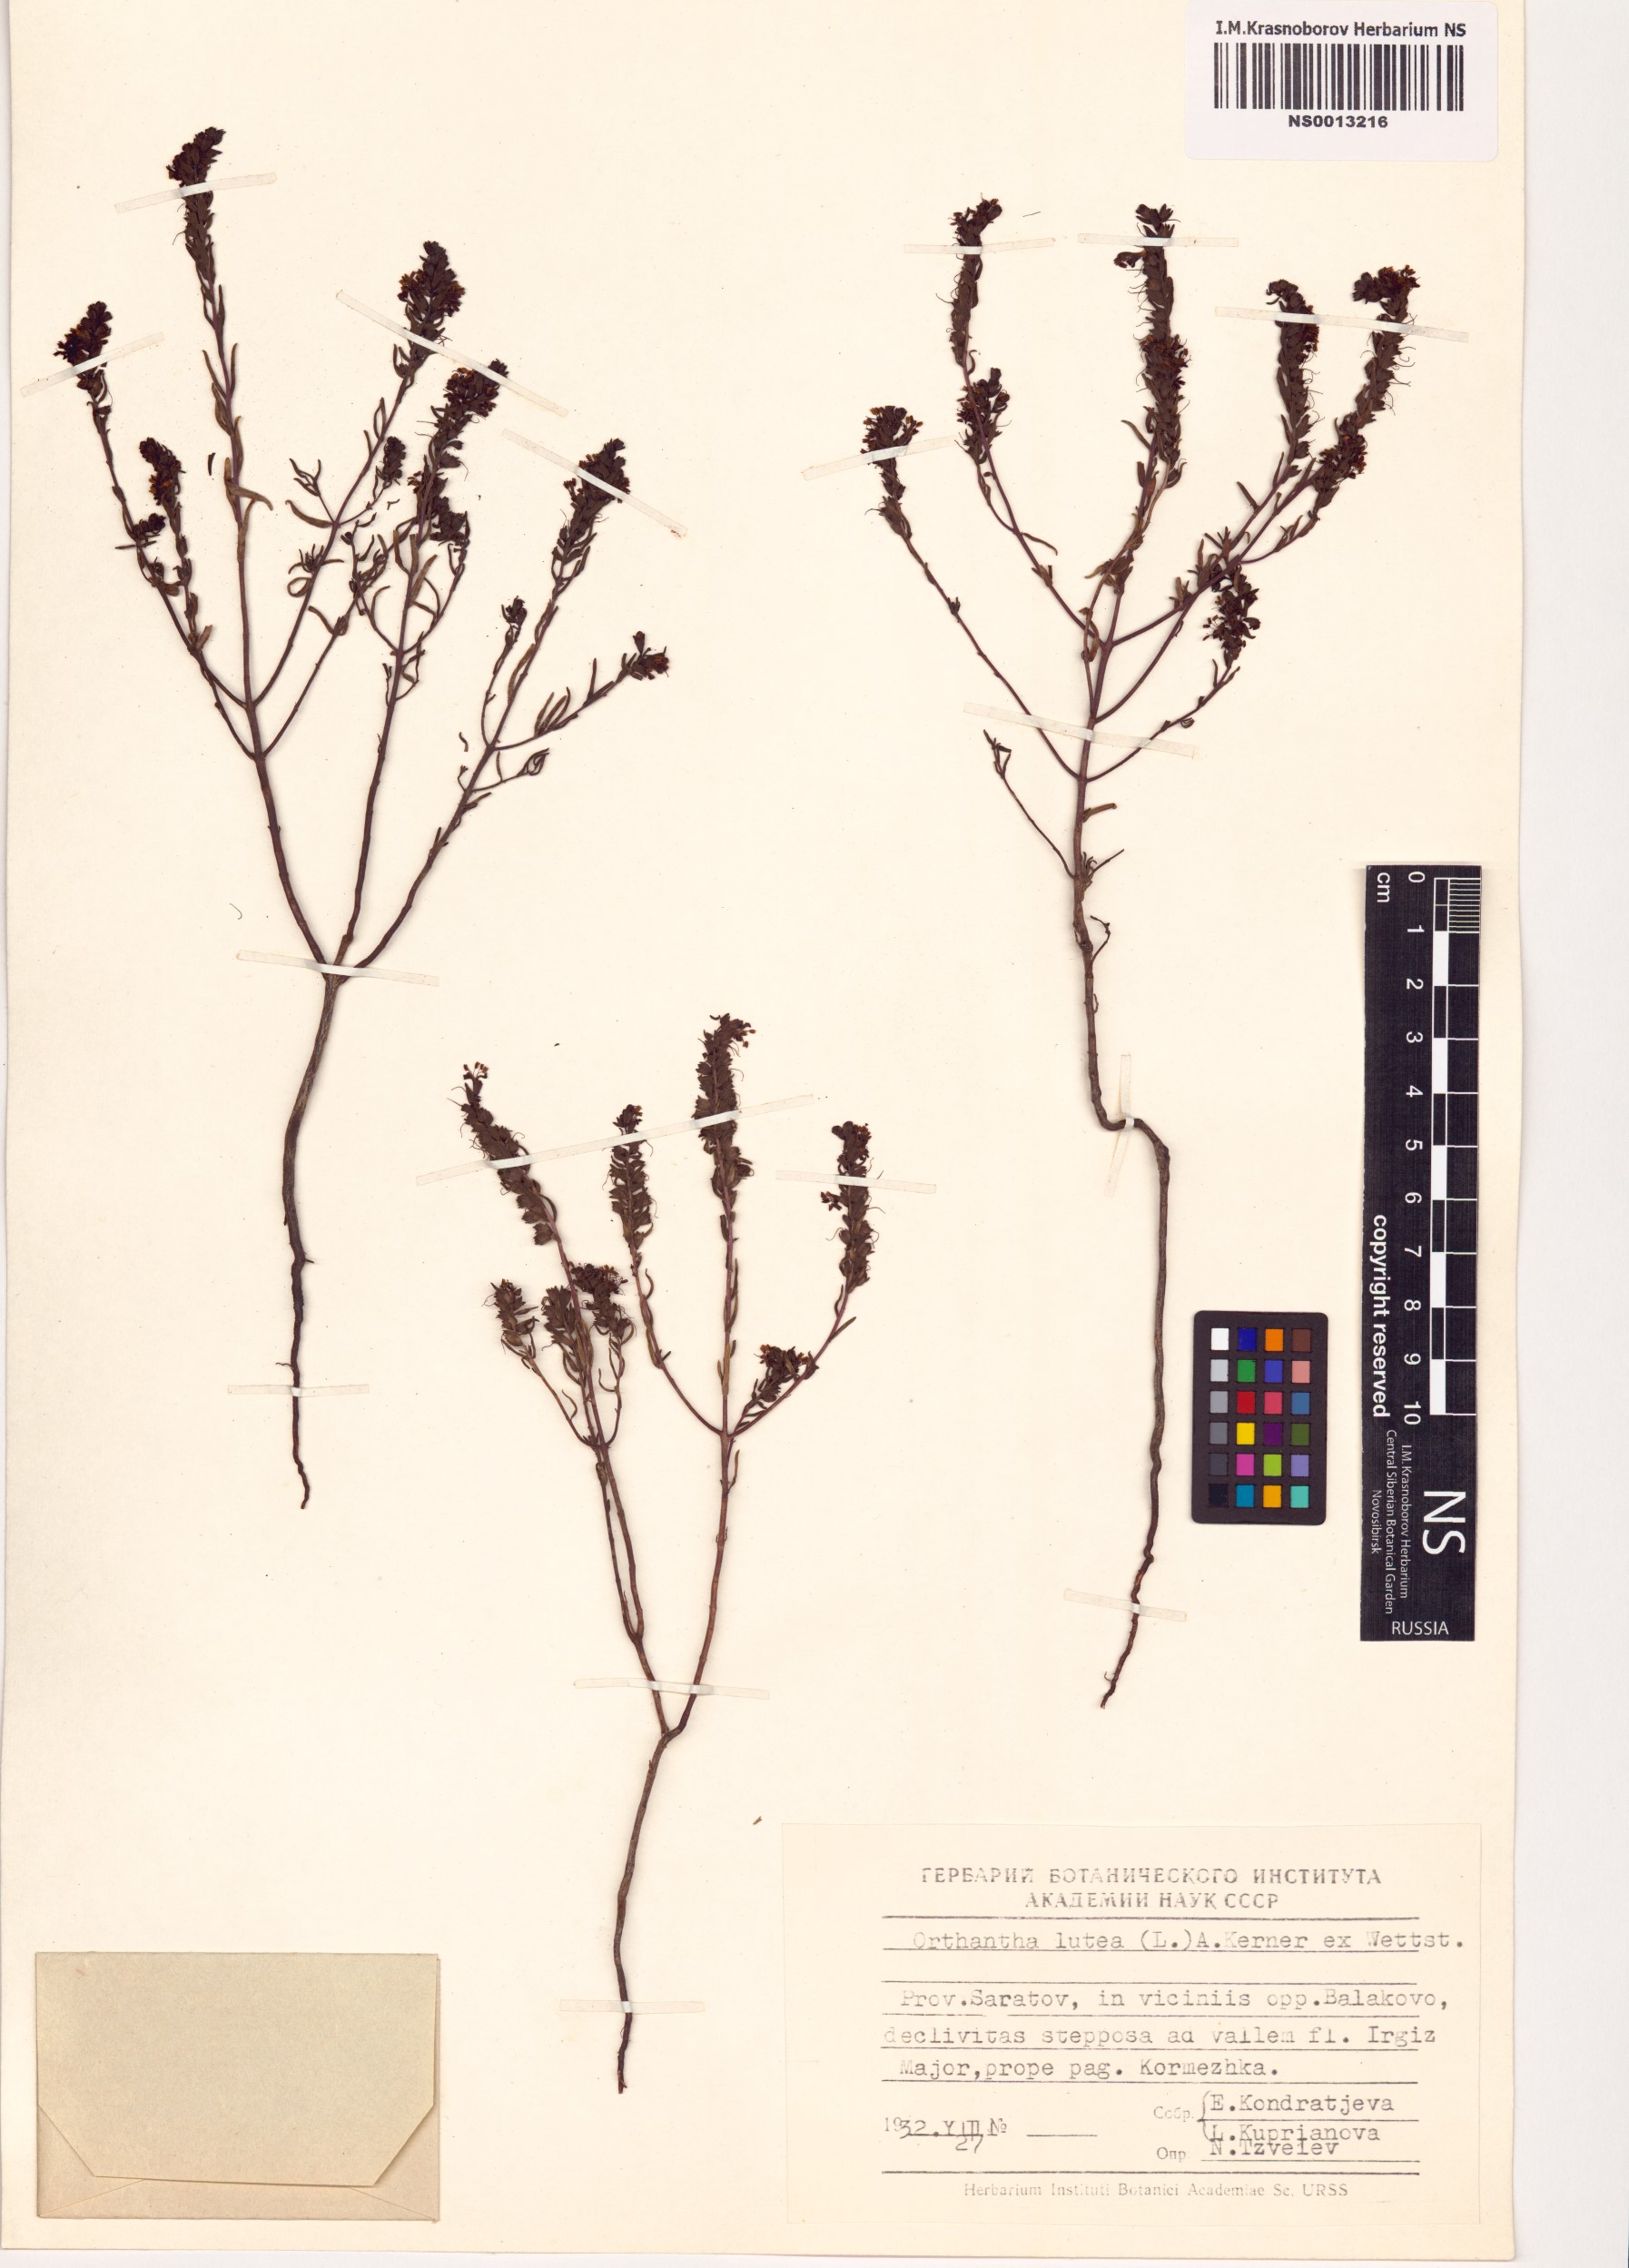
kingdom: Plantae
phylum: Tracheophyta
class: Magnoliopsida
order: Lamiales
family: Orobanchaceae
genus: Odontites
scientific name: Odontites luteus
